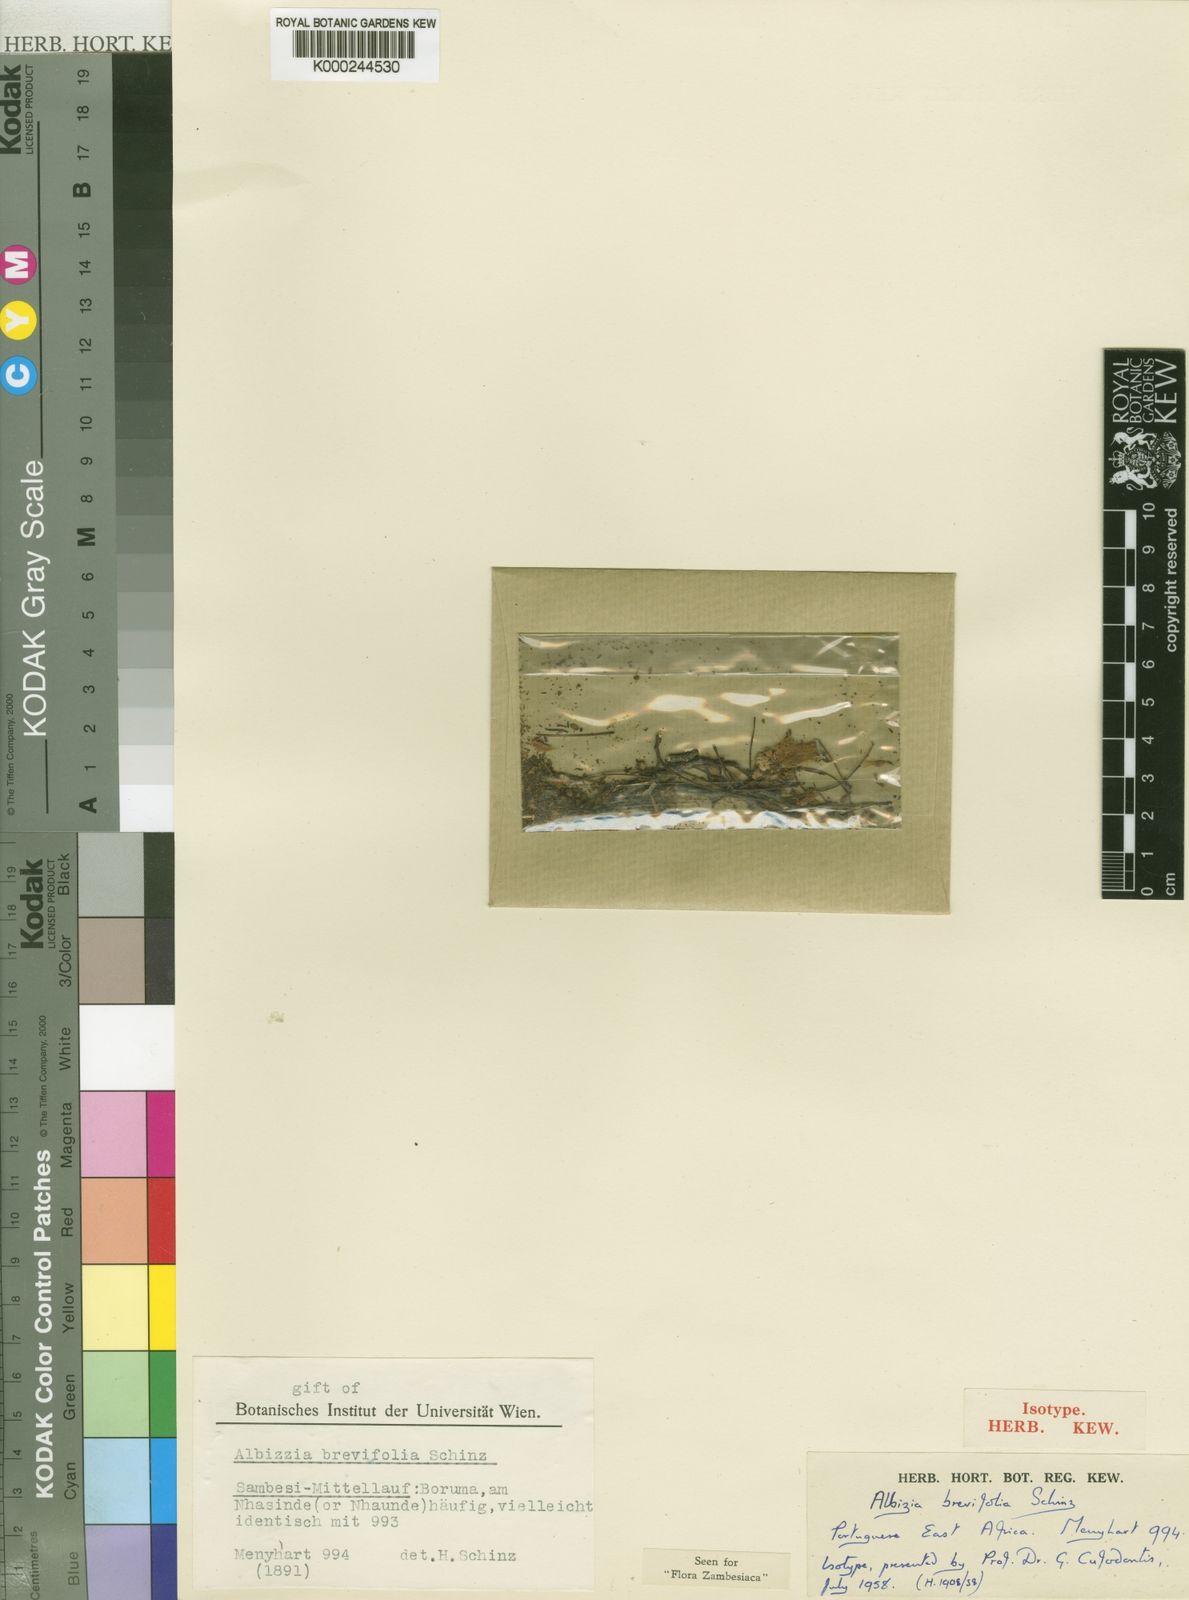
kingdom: Plantae
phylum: Tracheophyta
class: Magnoliopsida
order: Fabales
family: Fabaceae
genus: Albizia
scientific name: Albizia brevifolia
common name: Rock false-thorn
